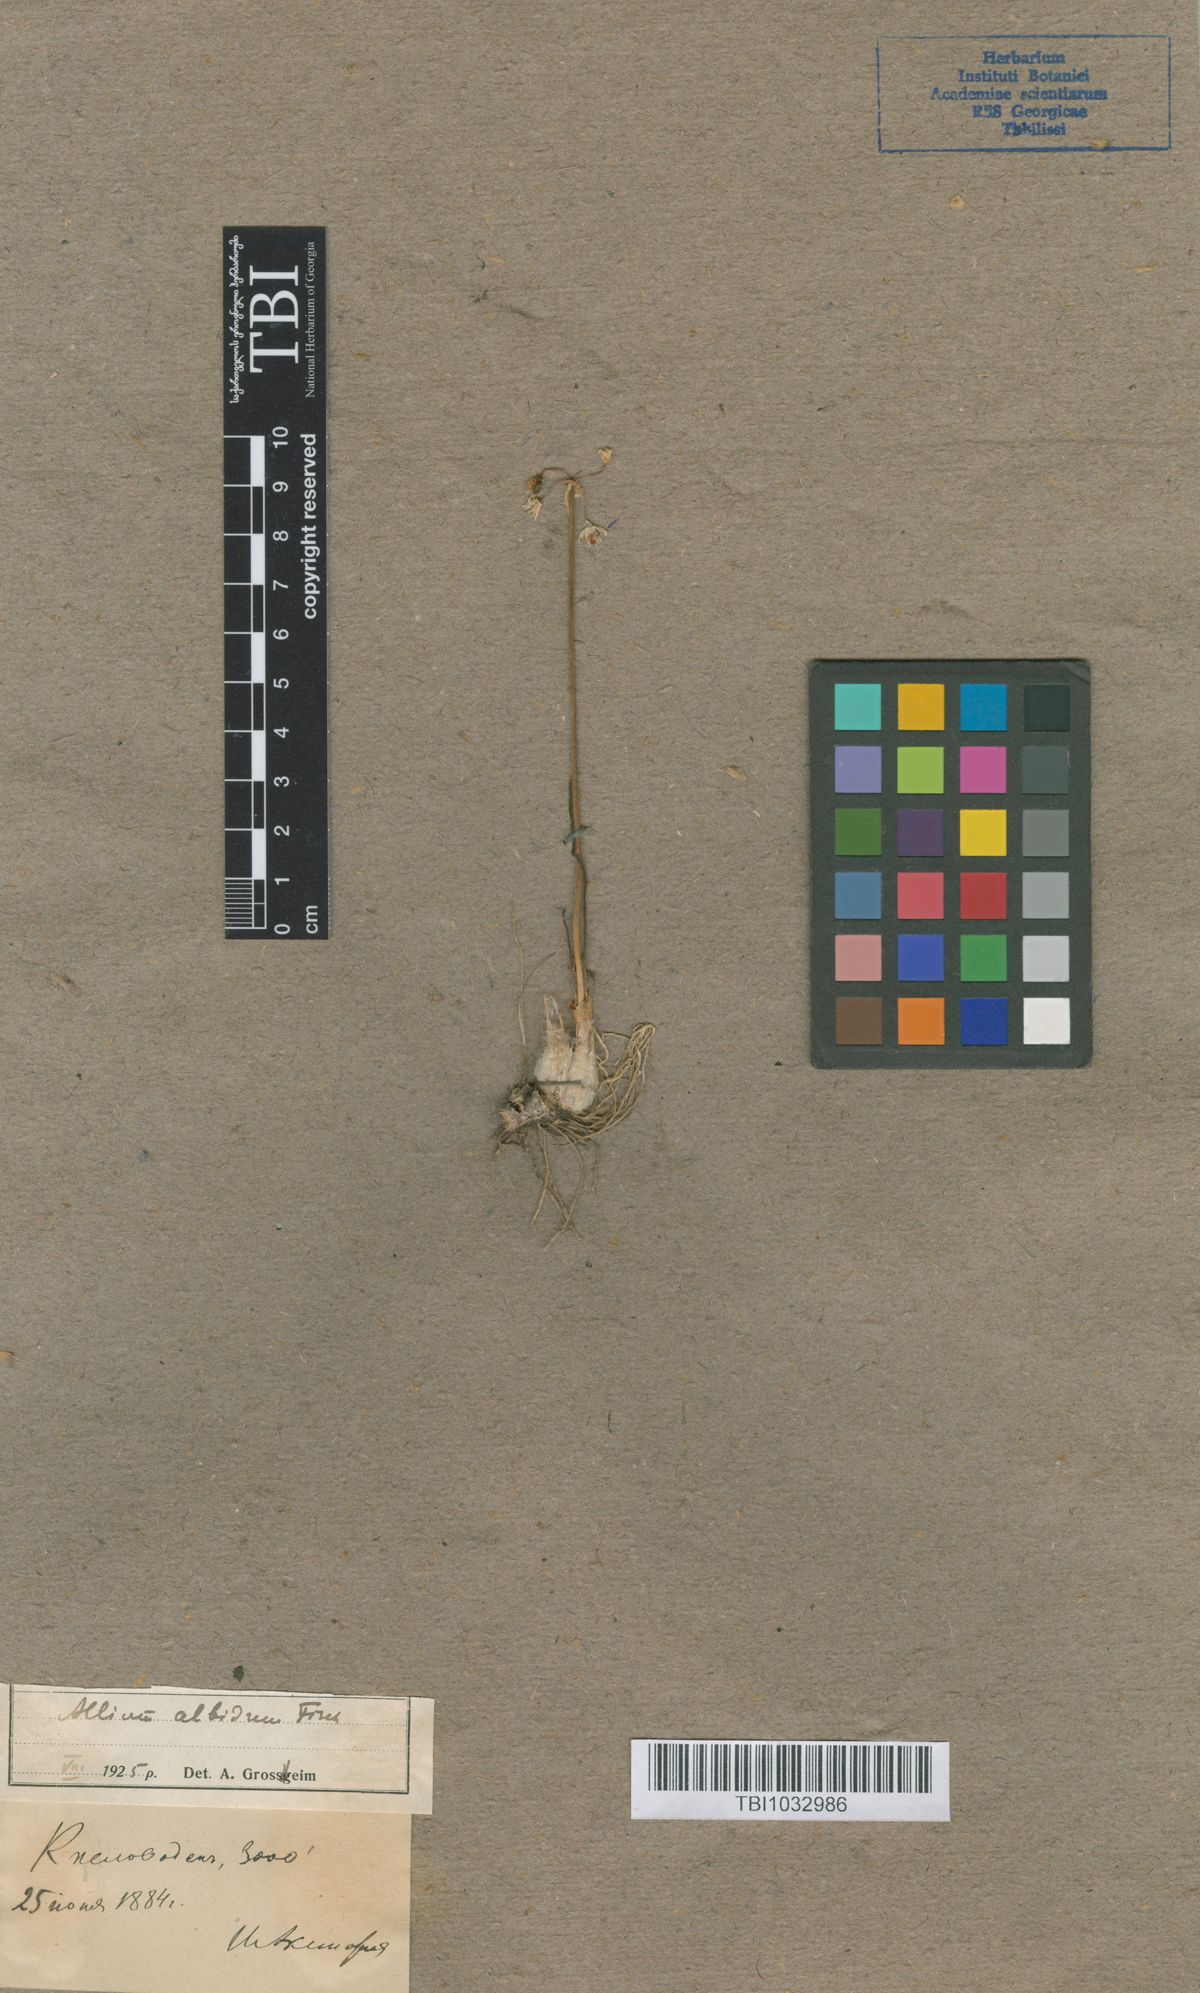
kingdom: Plantae
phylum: Tracheophyta
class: Liliopsida
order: Asparagales
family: Amaryllidaceae
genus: Allium
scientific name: Allium denudatum
